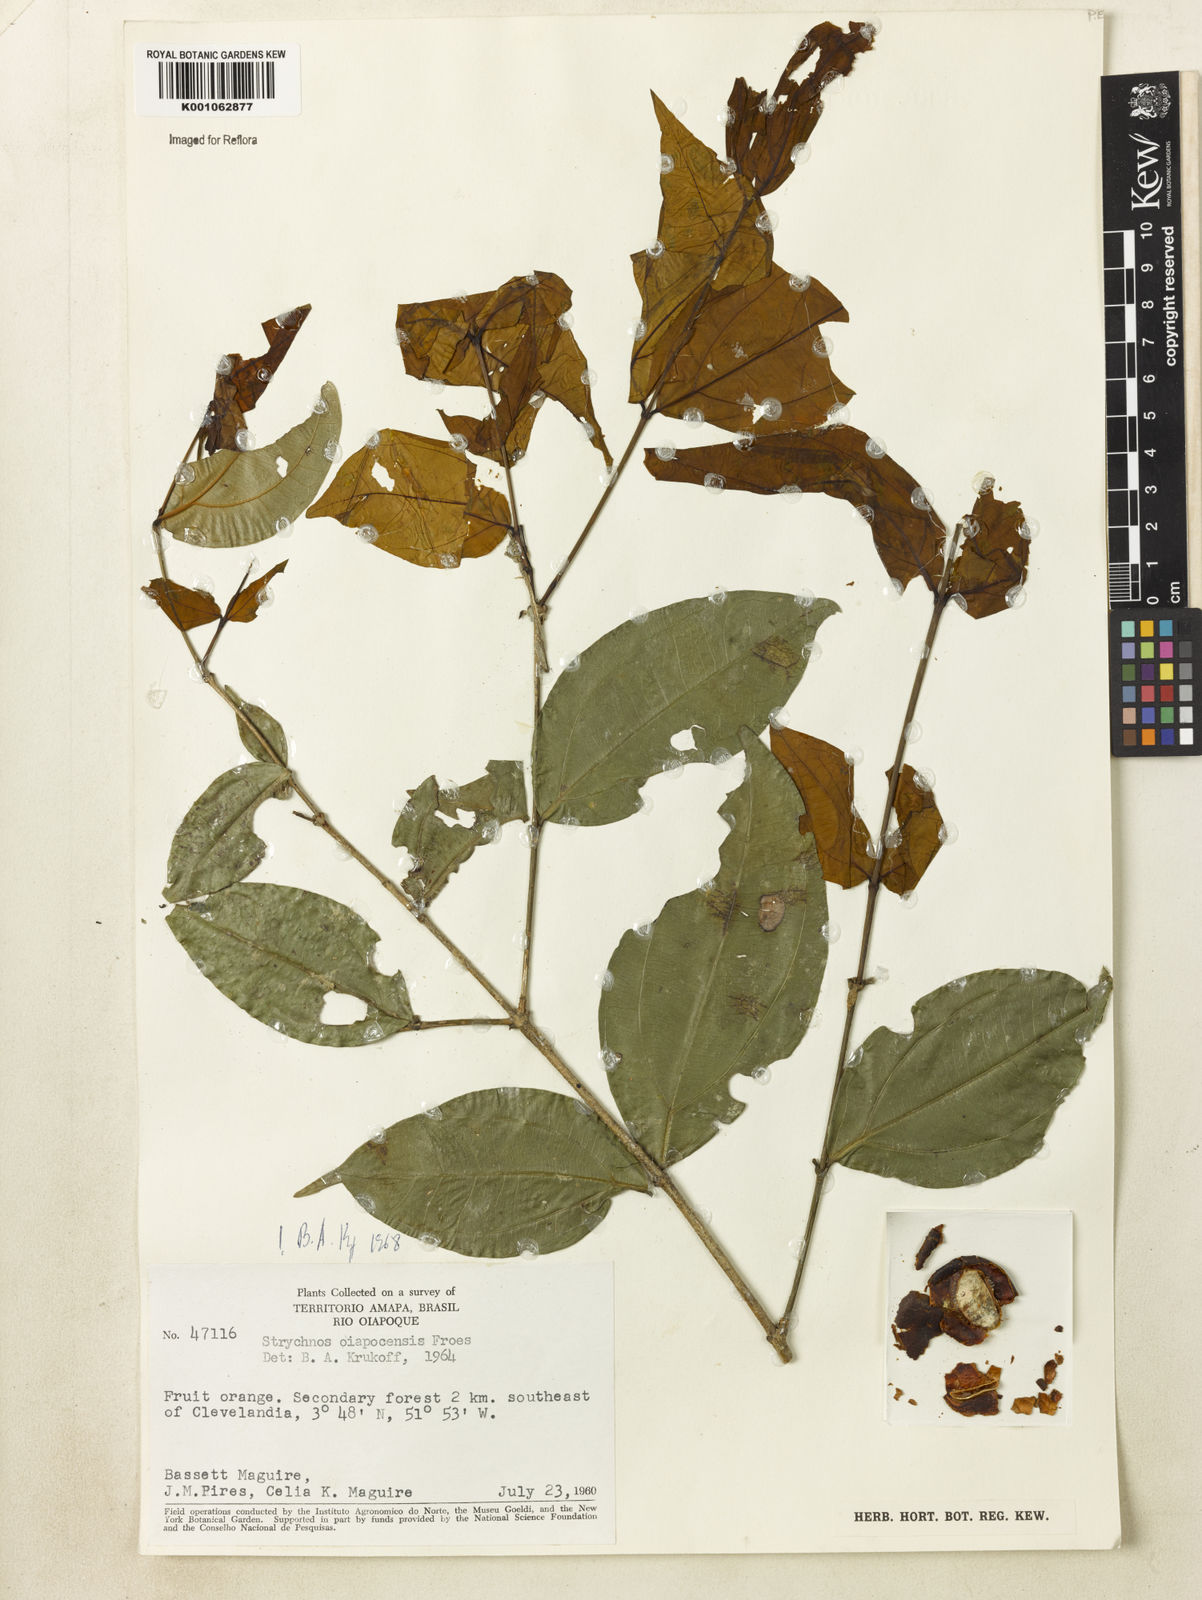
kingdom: Plantae
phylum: Tracheophyta
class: Magnoliopsida
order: Gentianales
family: Loganiaceae
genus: Strychnos
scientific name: Strychnos
